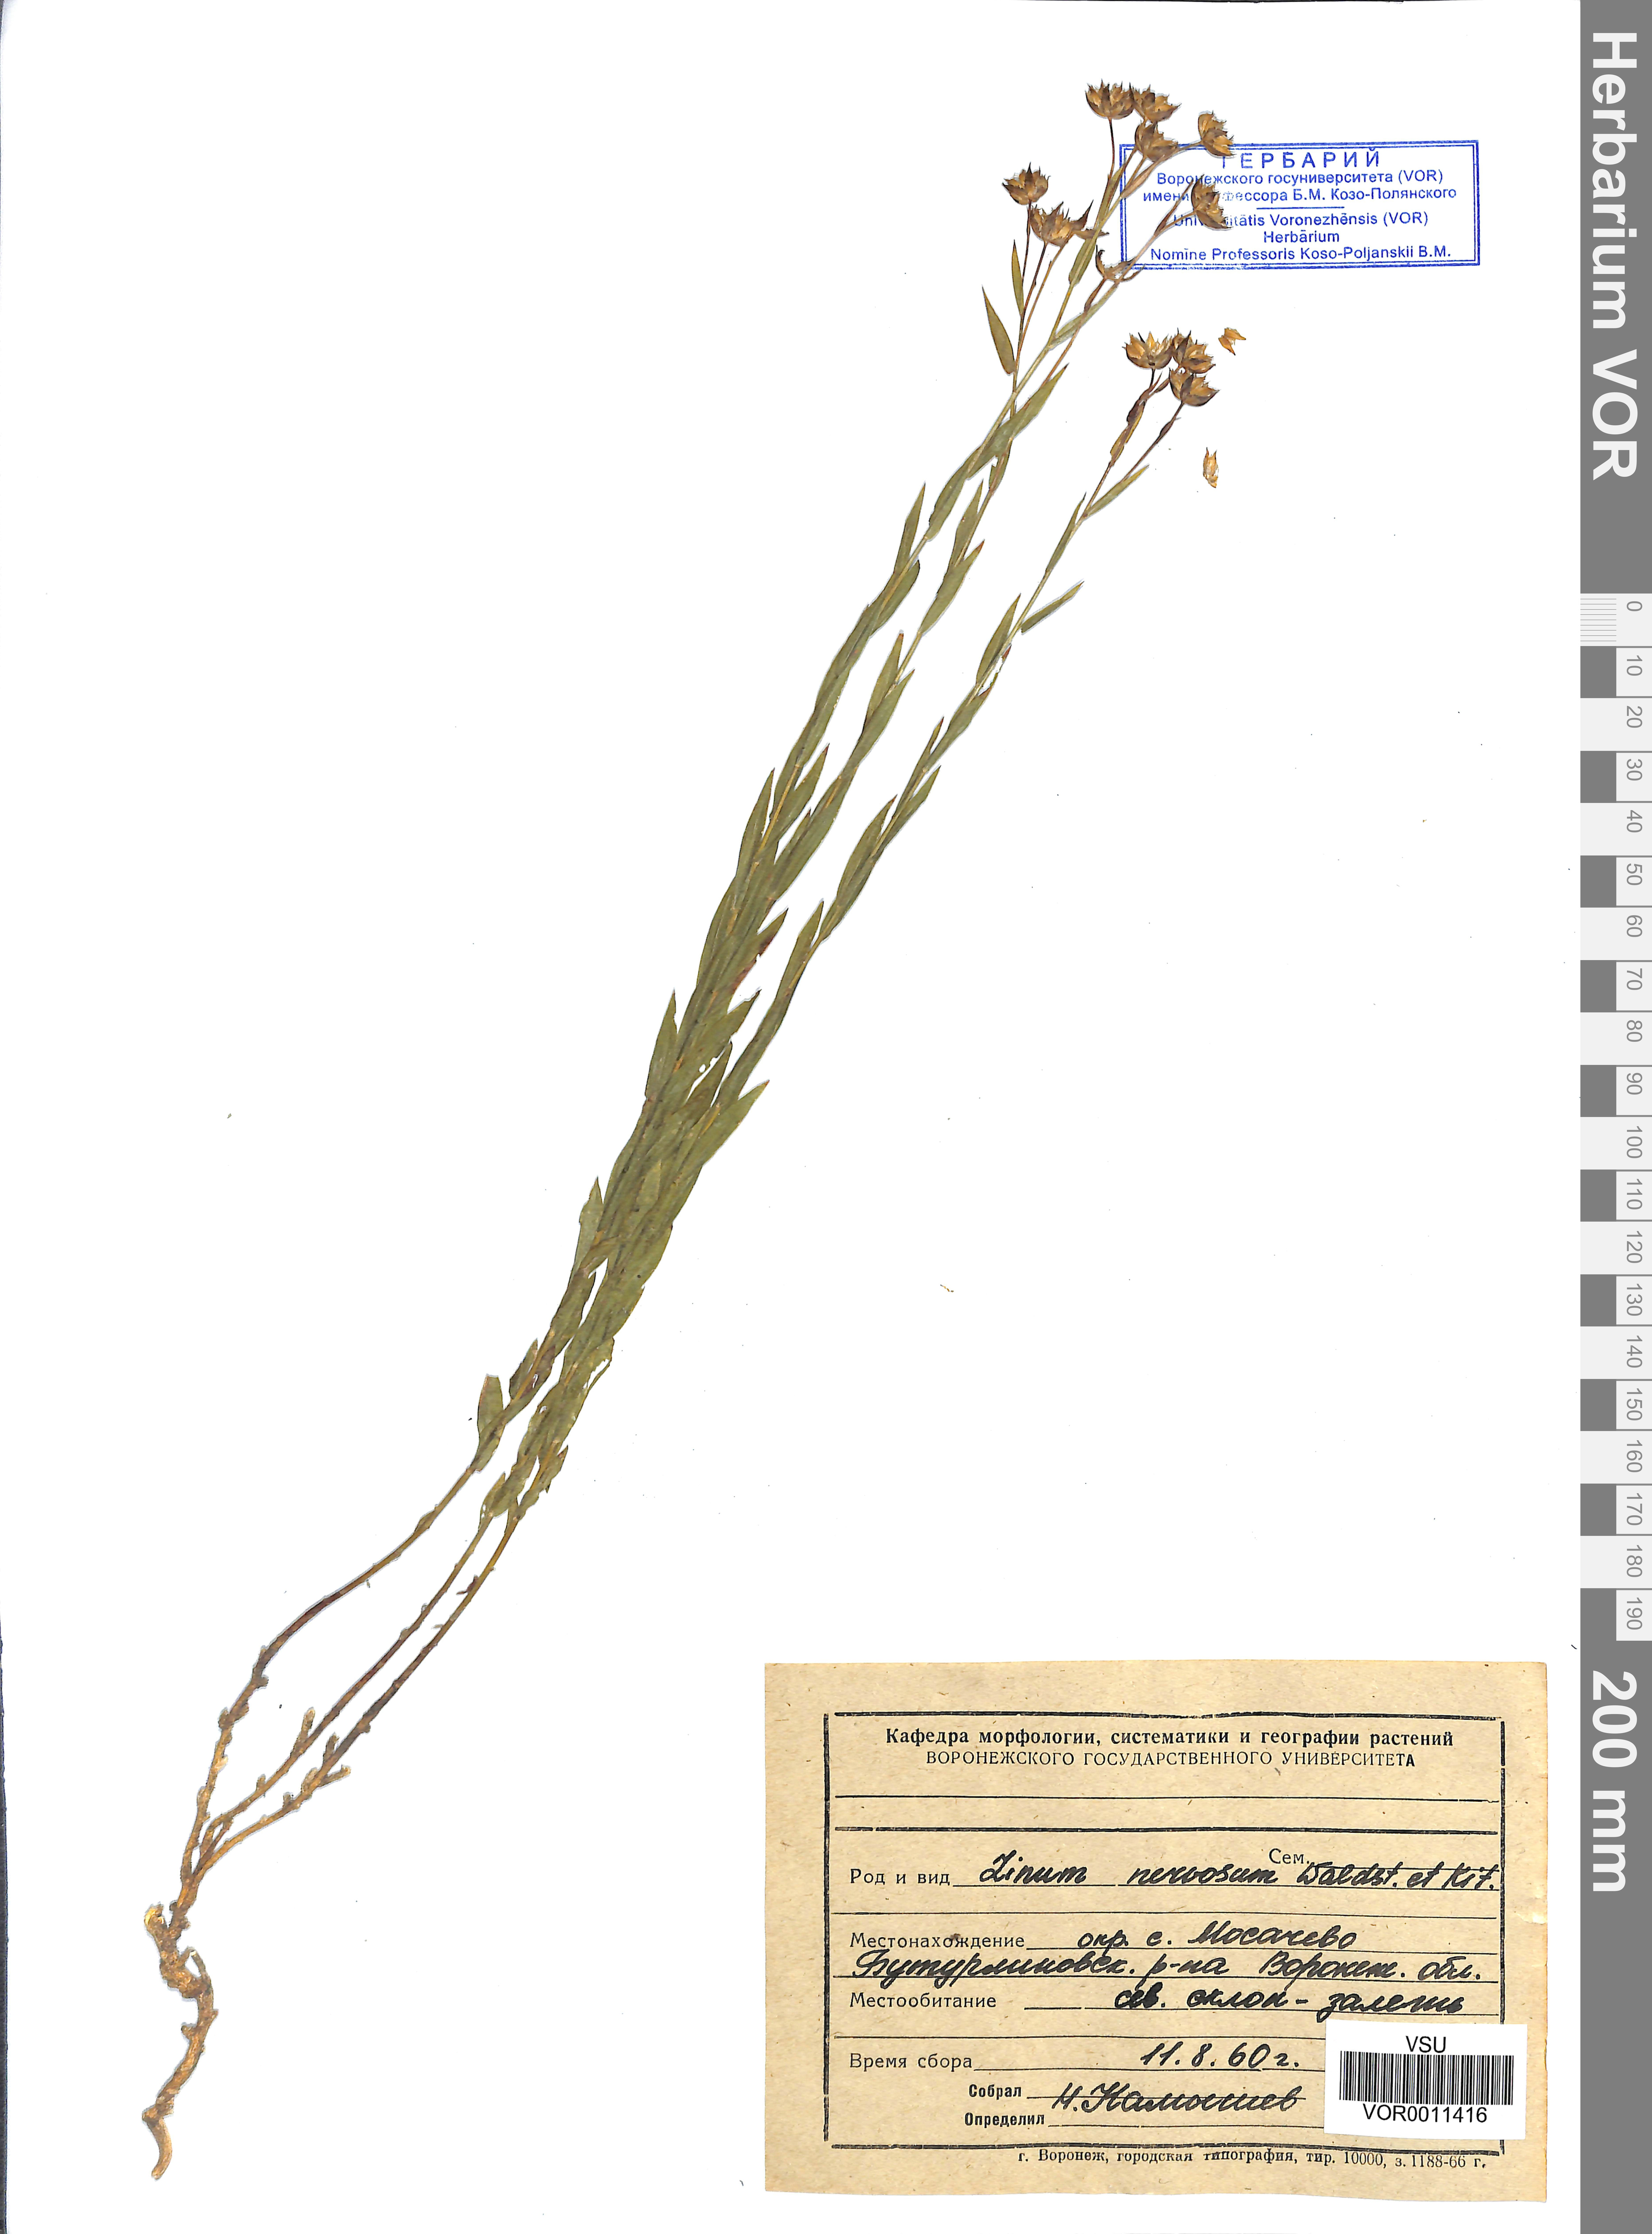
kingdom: Plantae
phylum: Tracheophyta
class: Magnoliopsida
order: Malpighiales
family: Linaceae
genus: Linum
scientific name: Linum nervosum
